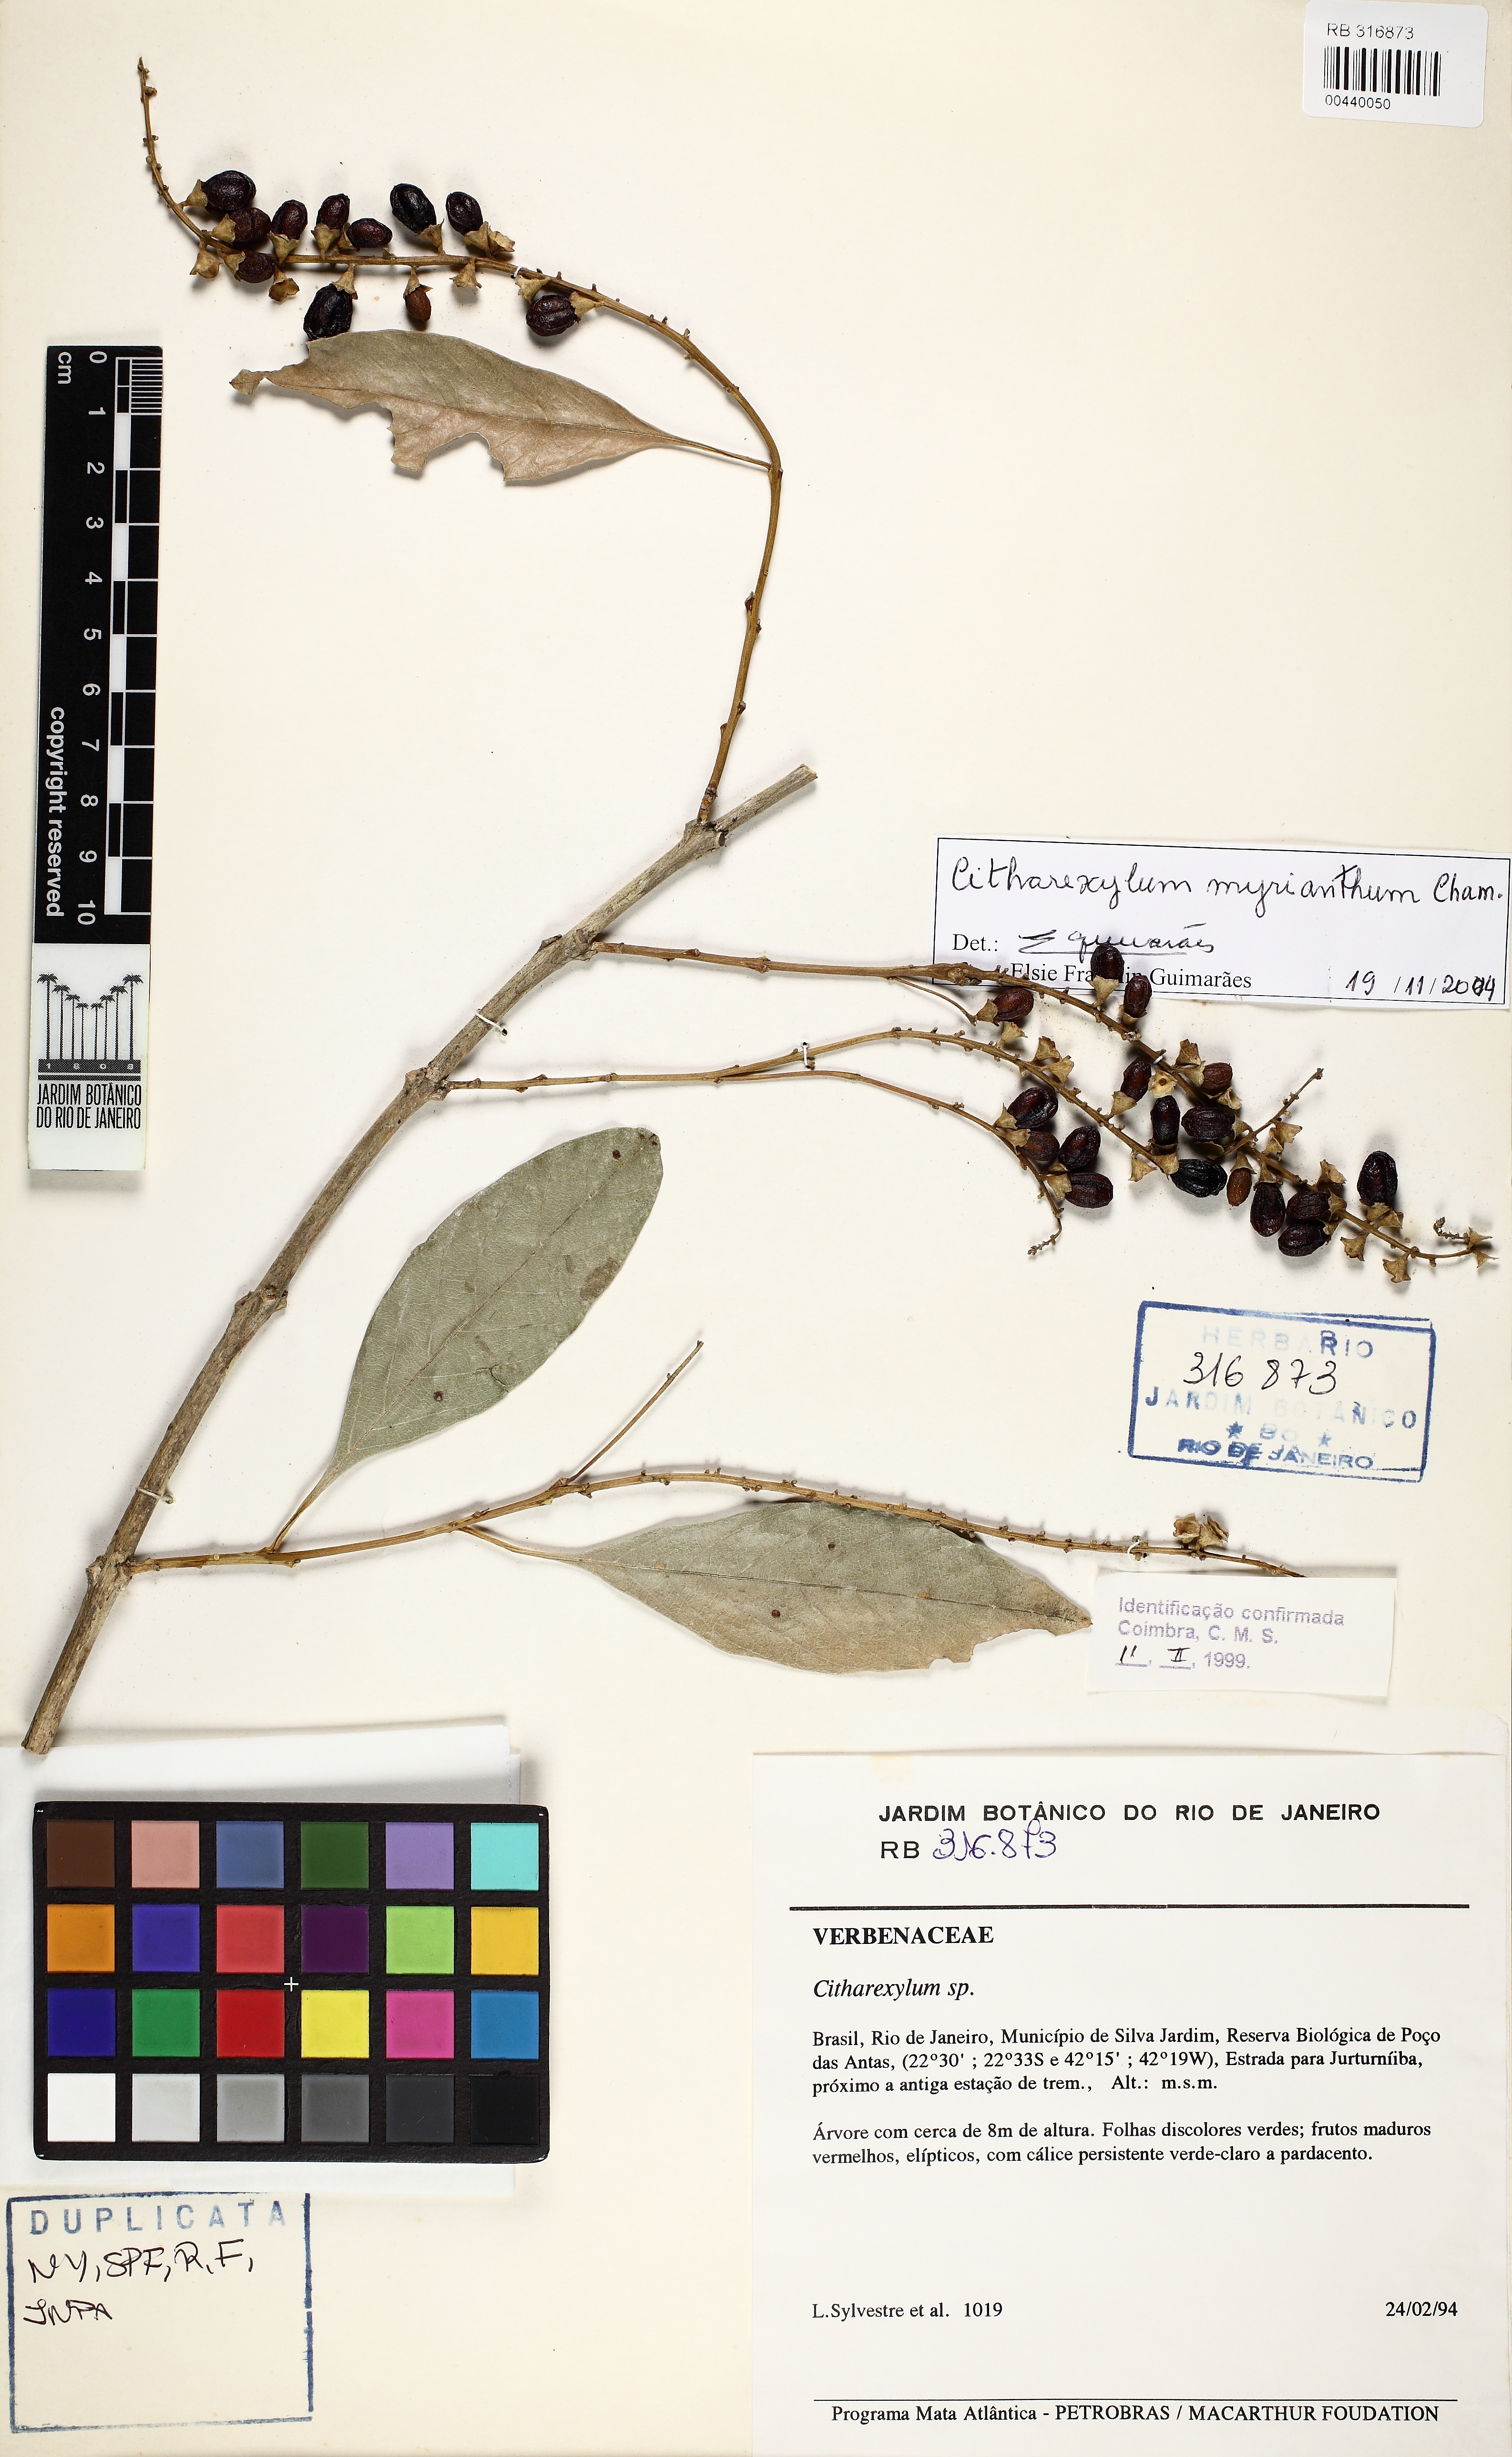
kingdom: Plantae
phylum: Tracheophyta
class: Magnoliopsida
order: Lamiales
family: Verbenaceae
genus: Citharexylum
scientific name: Citharexylum myrianthum
